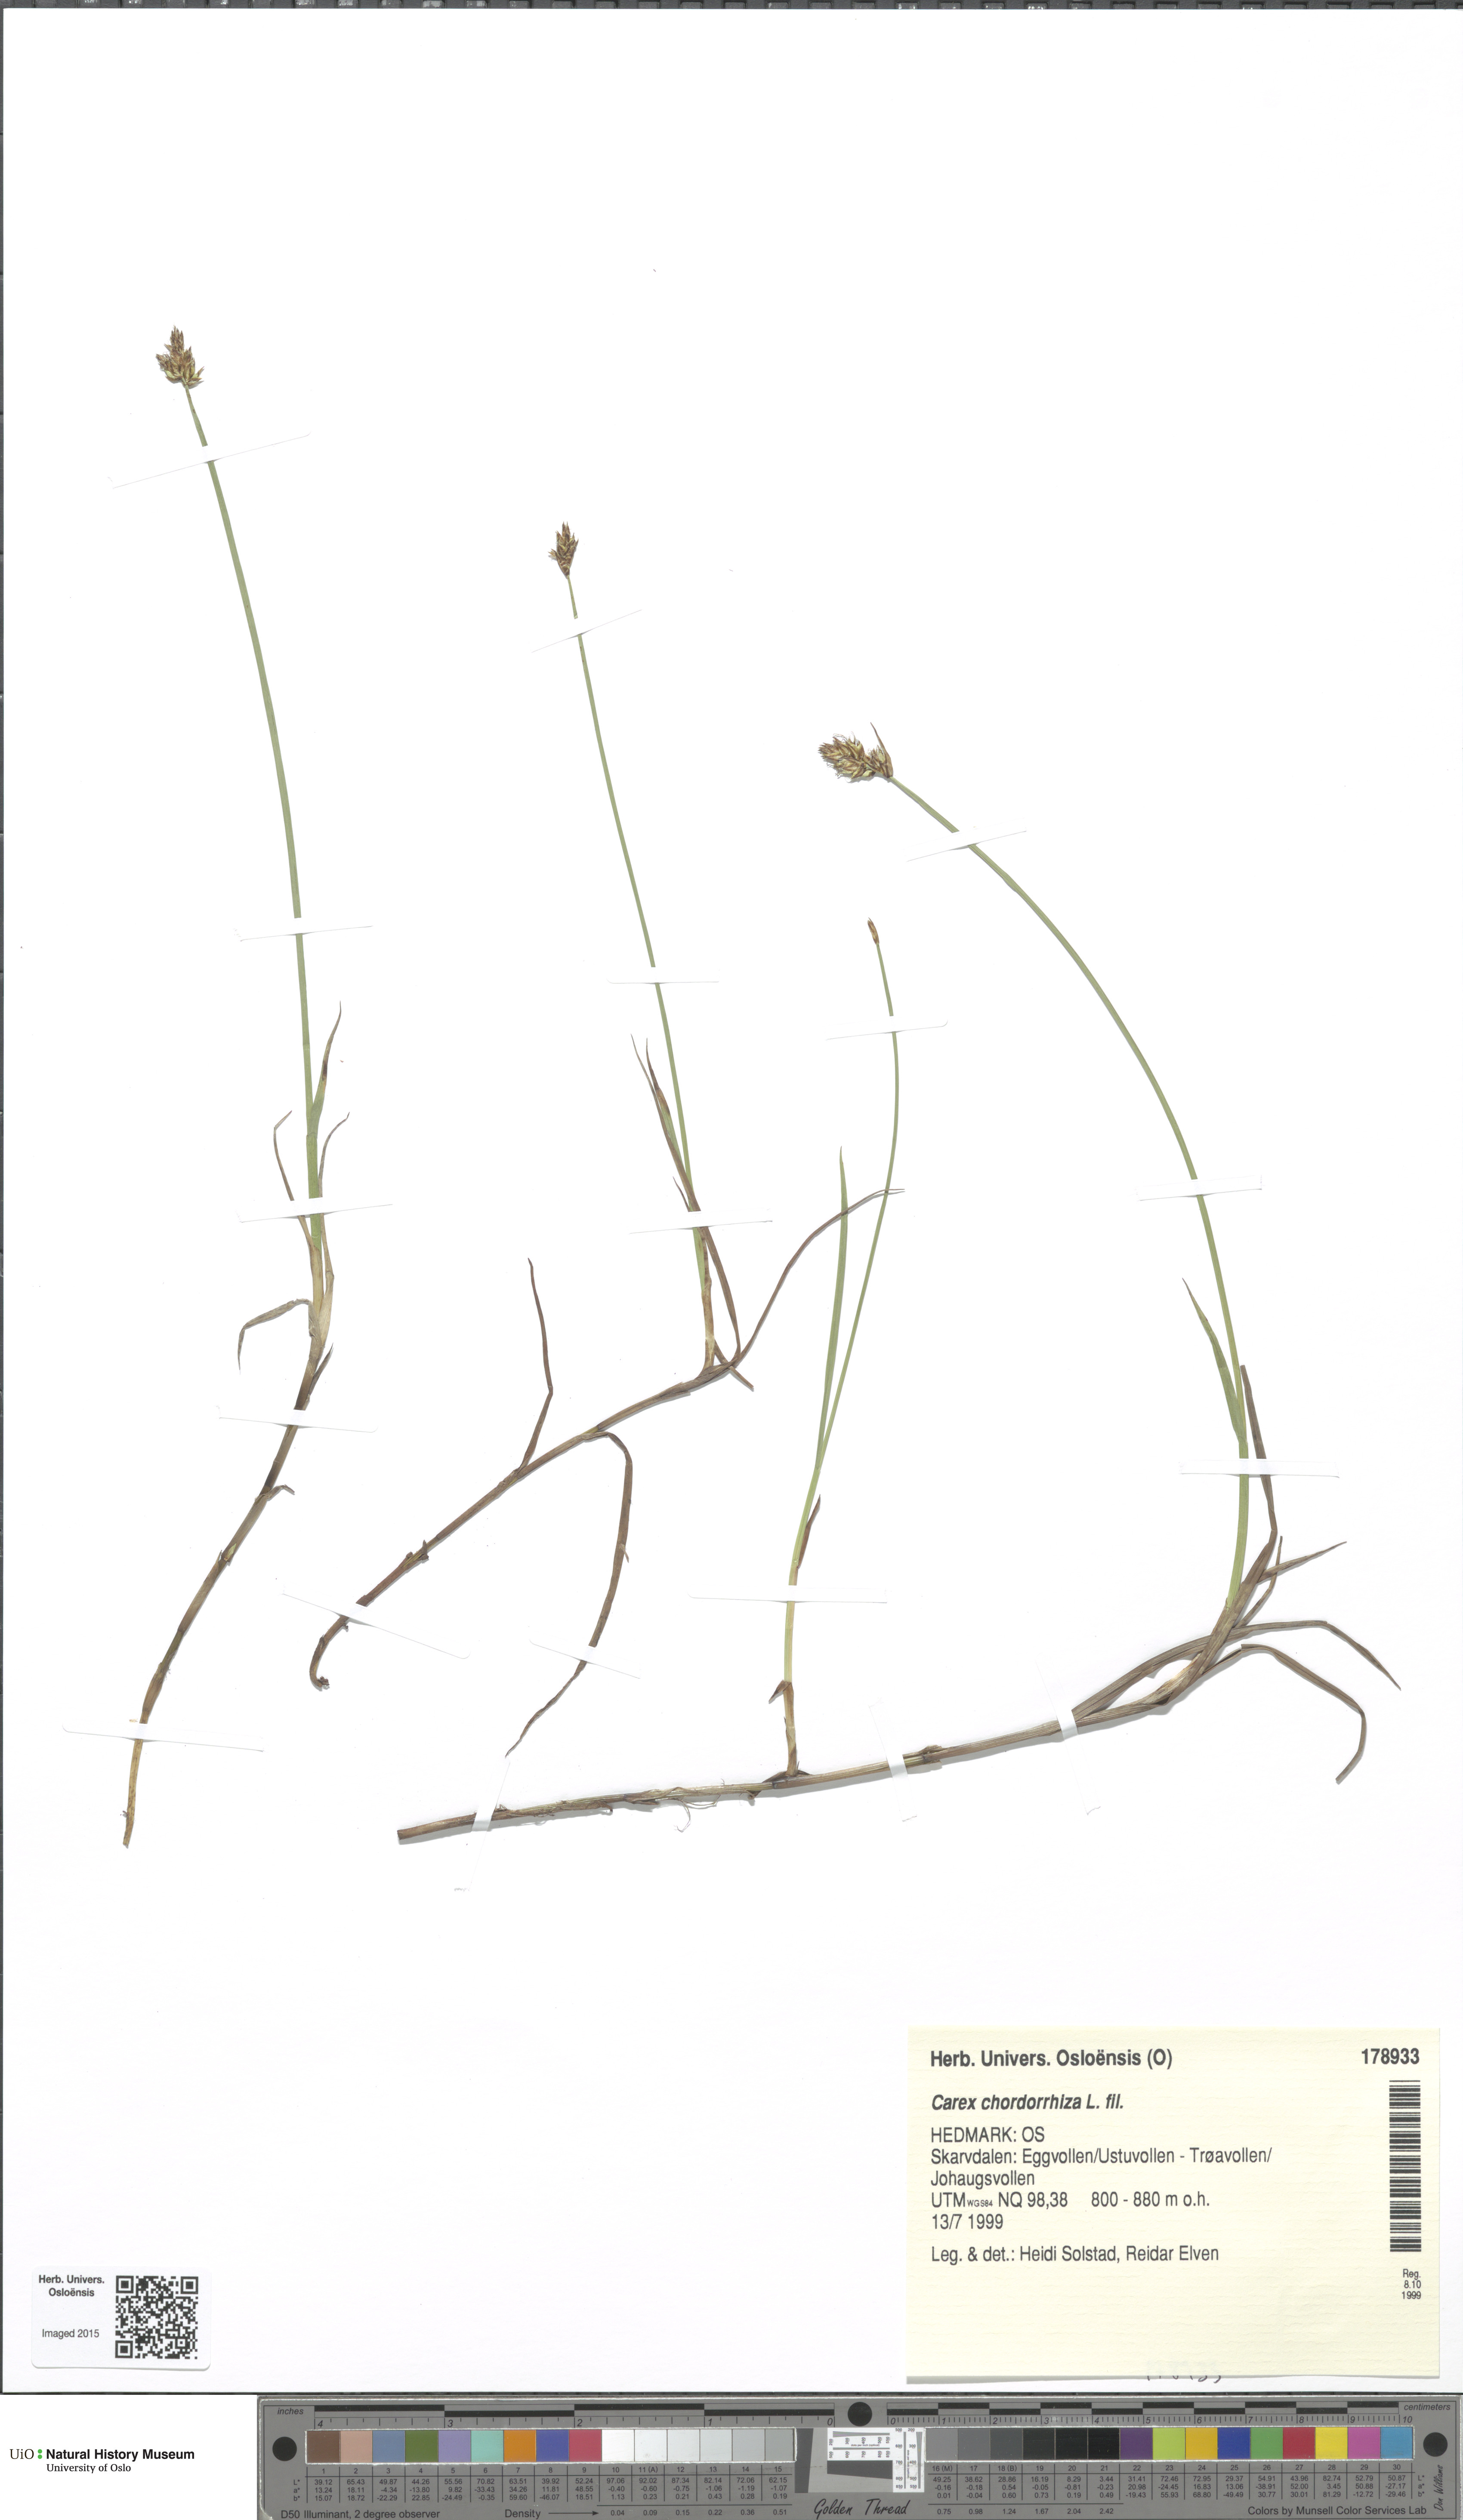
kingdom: Plantae
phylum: Tracheophyta
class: Liliopsida
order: Poales
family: Cyperaceae
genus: Carex
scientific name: Carex chordorrhiza
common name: String sedge
